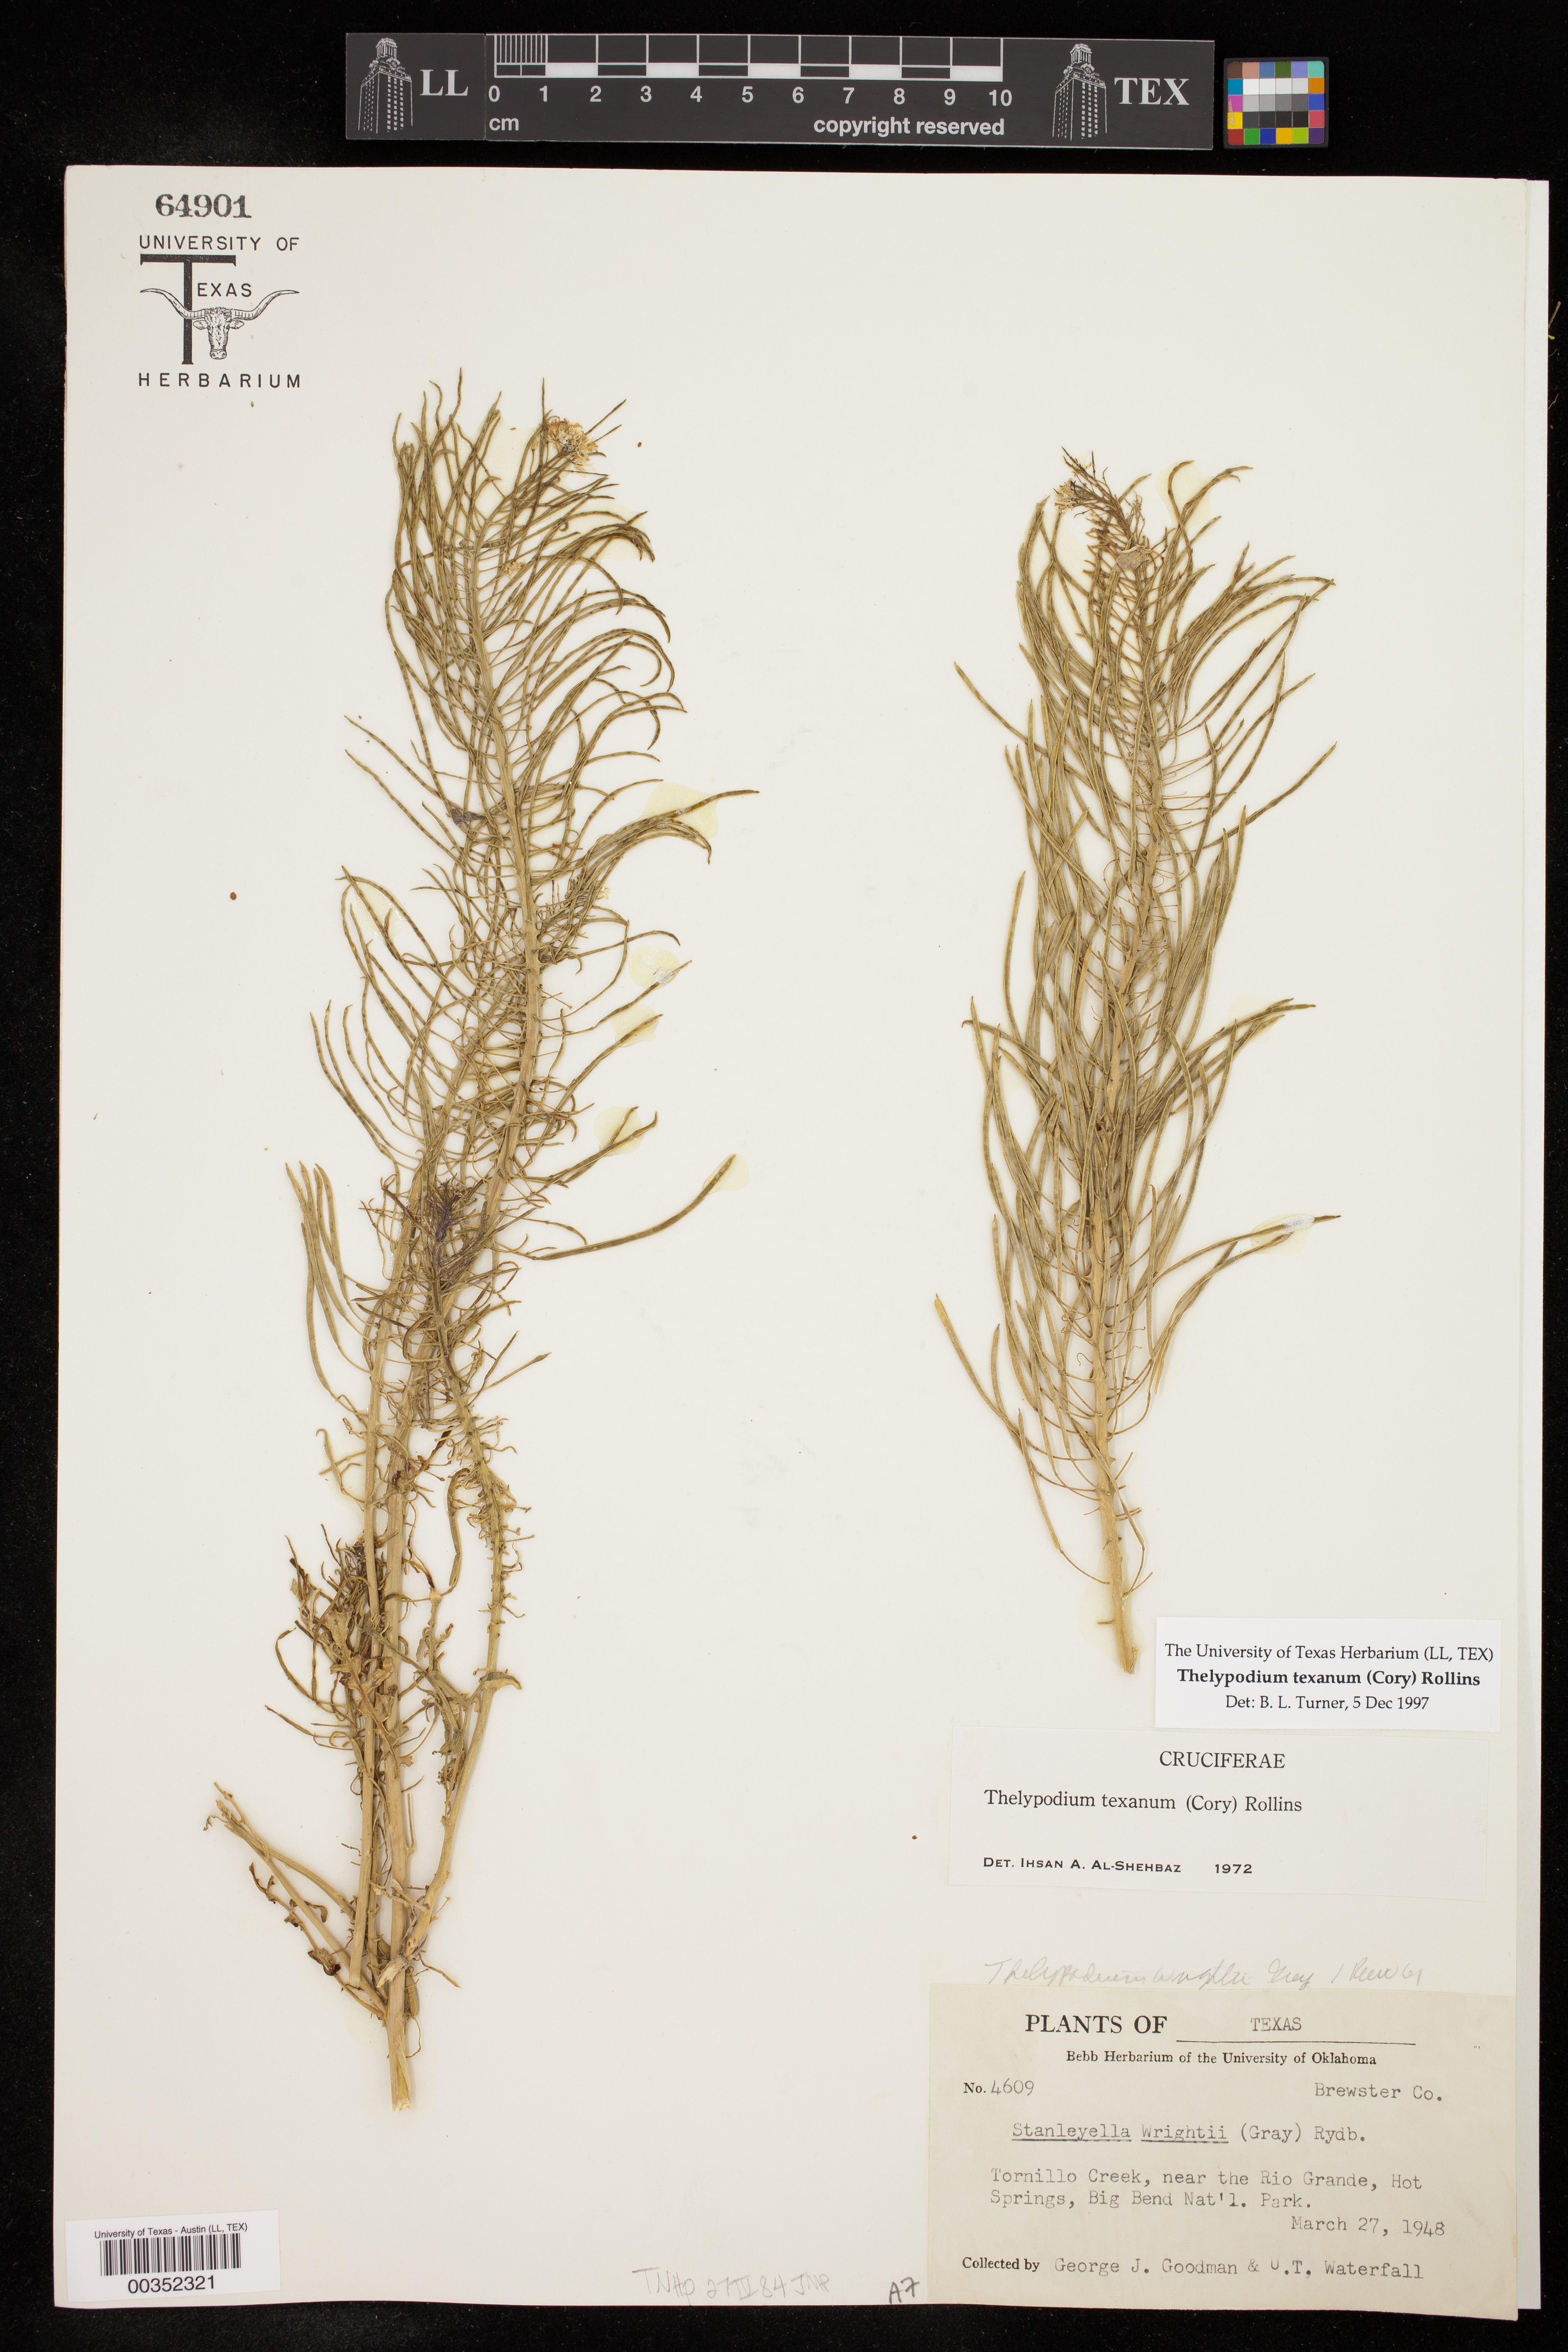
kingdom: Plantae
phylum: Tracheophyta
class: Magnoliopsida
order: Brassicales
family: Brassicaceae
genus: Thelypodium
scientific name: Thelypodium texanum
